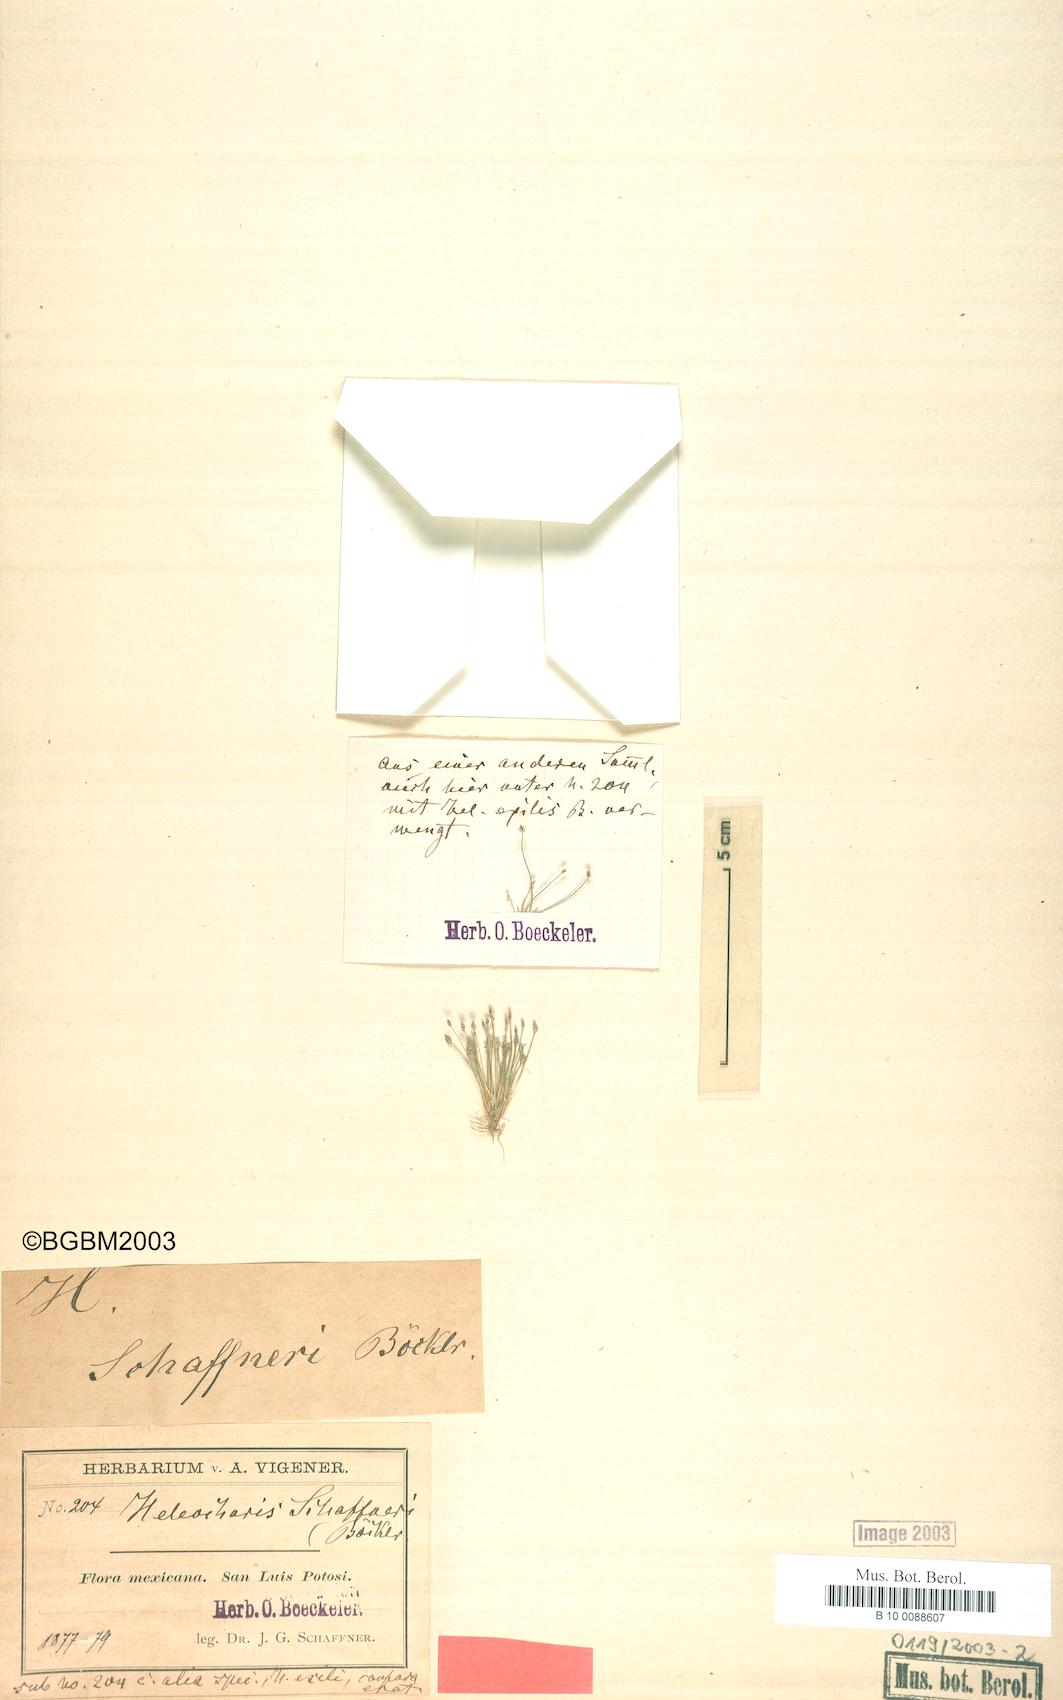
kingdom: Plantae
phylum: Tracheophyta
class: Liliopsida
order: Poales
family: Cyperaceae
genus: Eleocharis
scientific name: Eleocharis schaffneri
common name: Schaffner's spikerush
